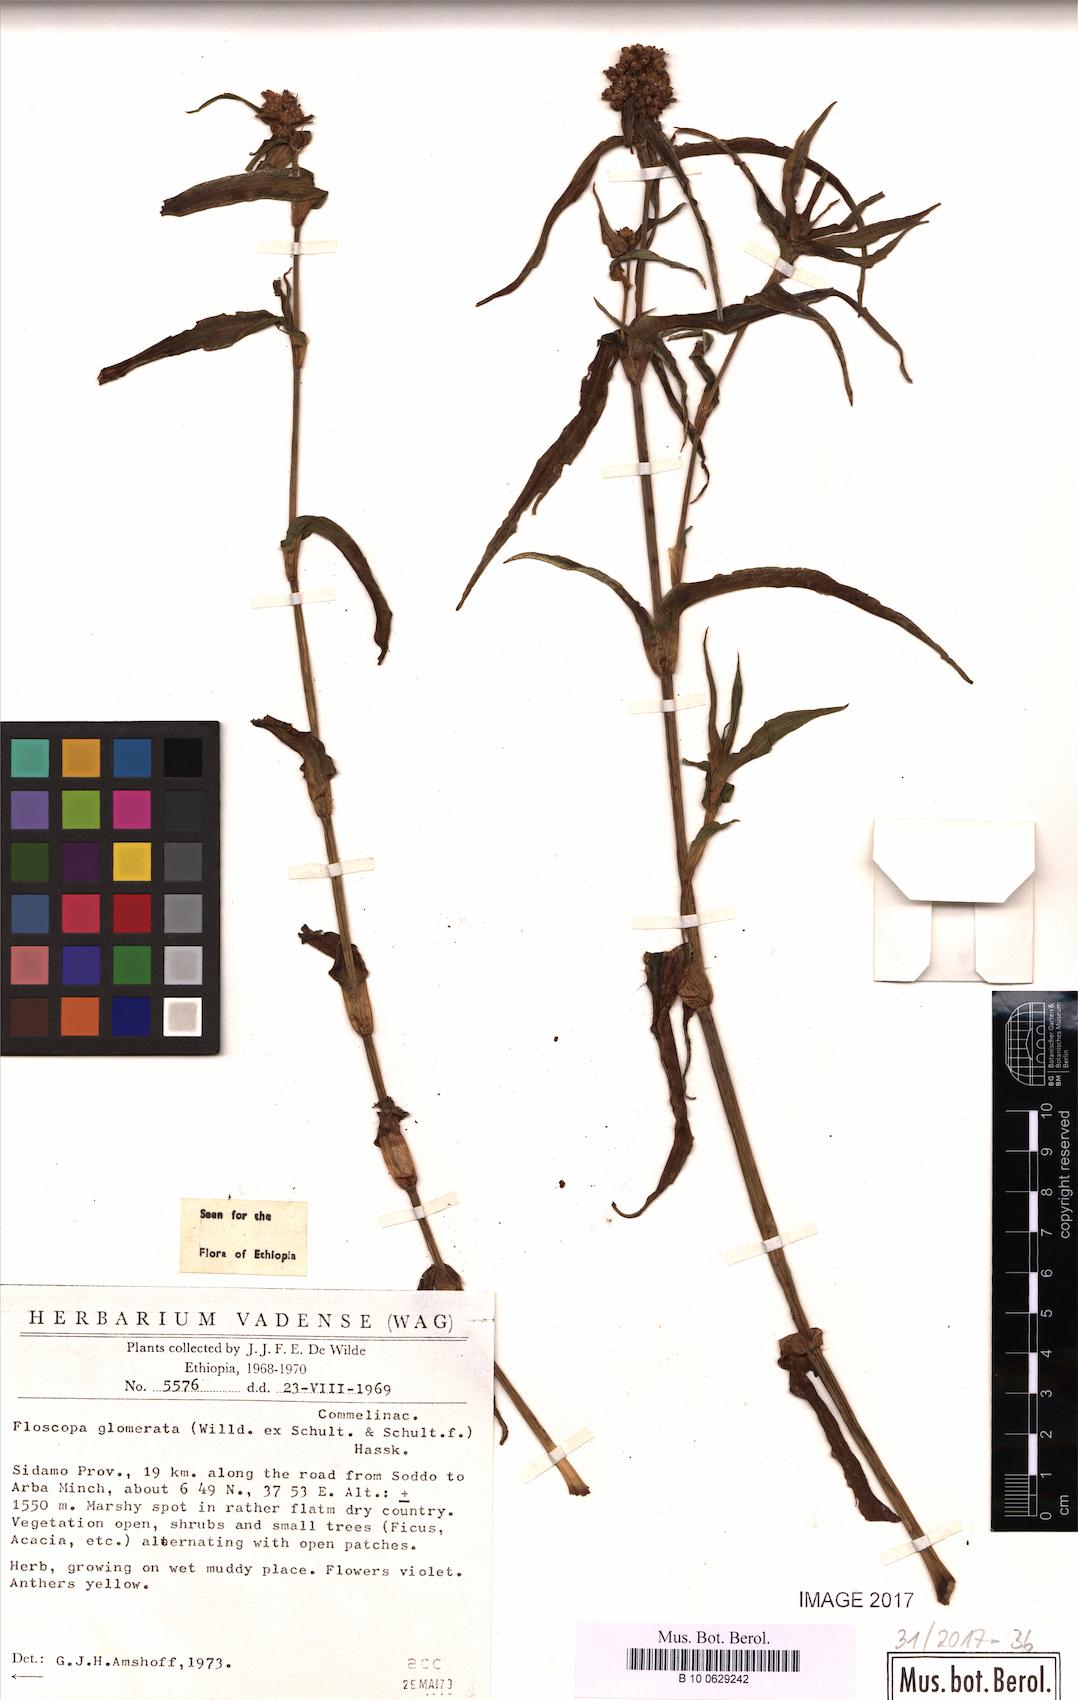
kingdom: Plantae
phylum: Tracheophyta
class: Liliopsida
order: Commelinales
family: Commelinaceae
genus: Floscopa
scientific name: Floscopa glomerata
